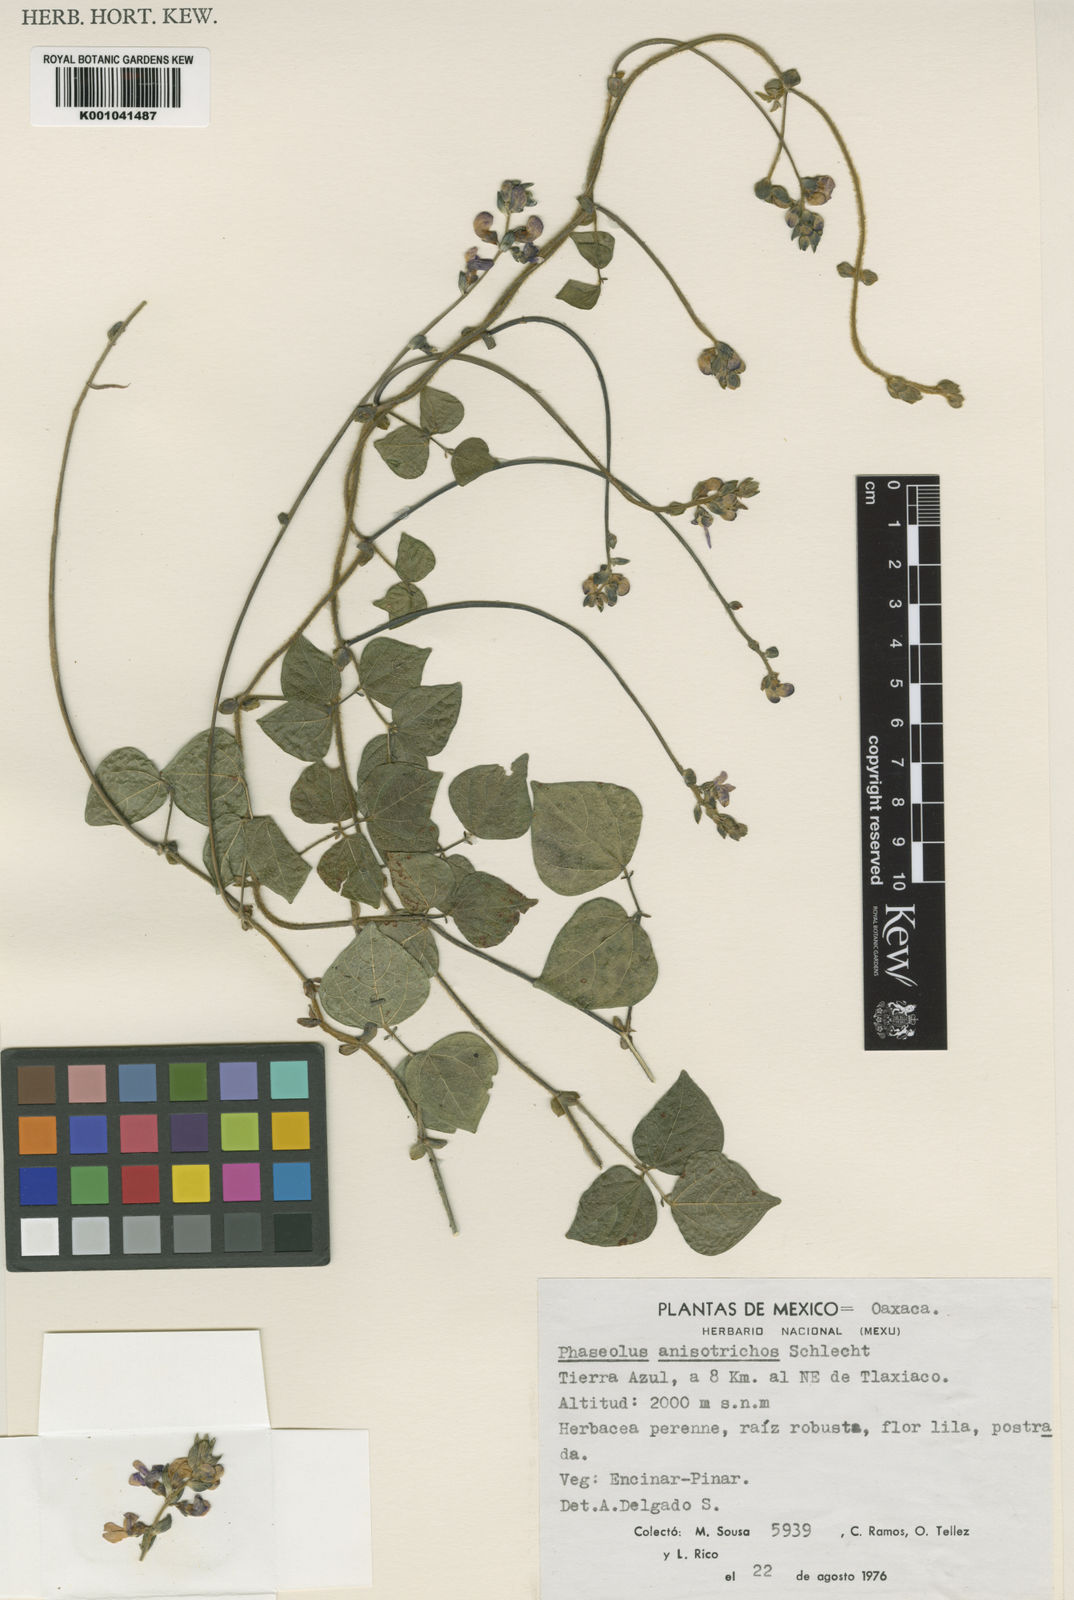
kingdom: Plantae
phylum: Tracheophyta
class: Magnoliopsida
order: Fabales
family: Fabaceae
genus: Phaseolus
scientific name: Phaseolus
